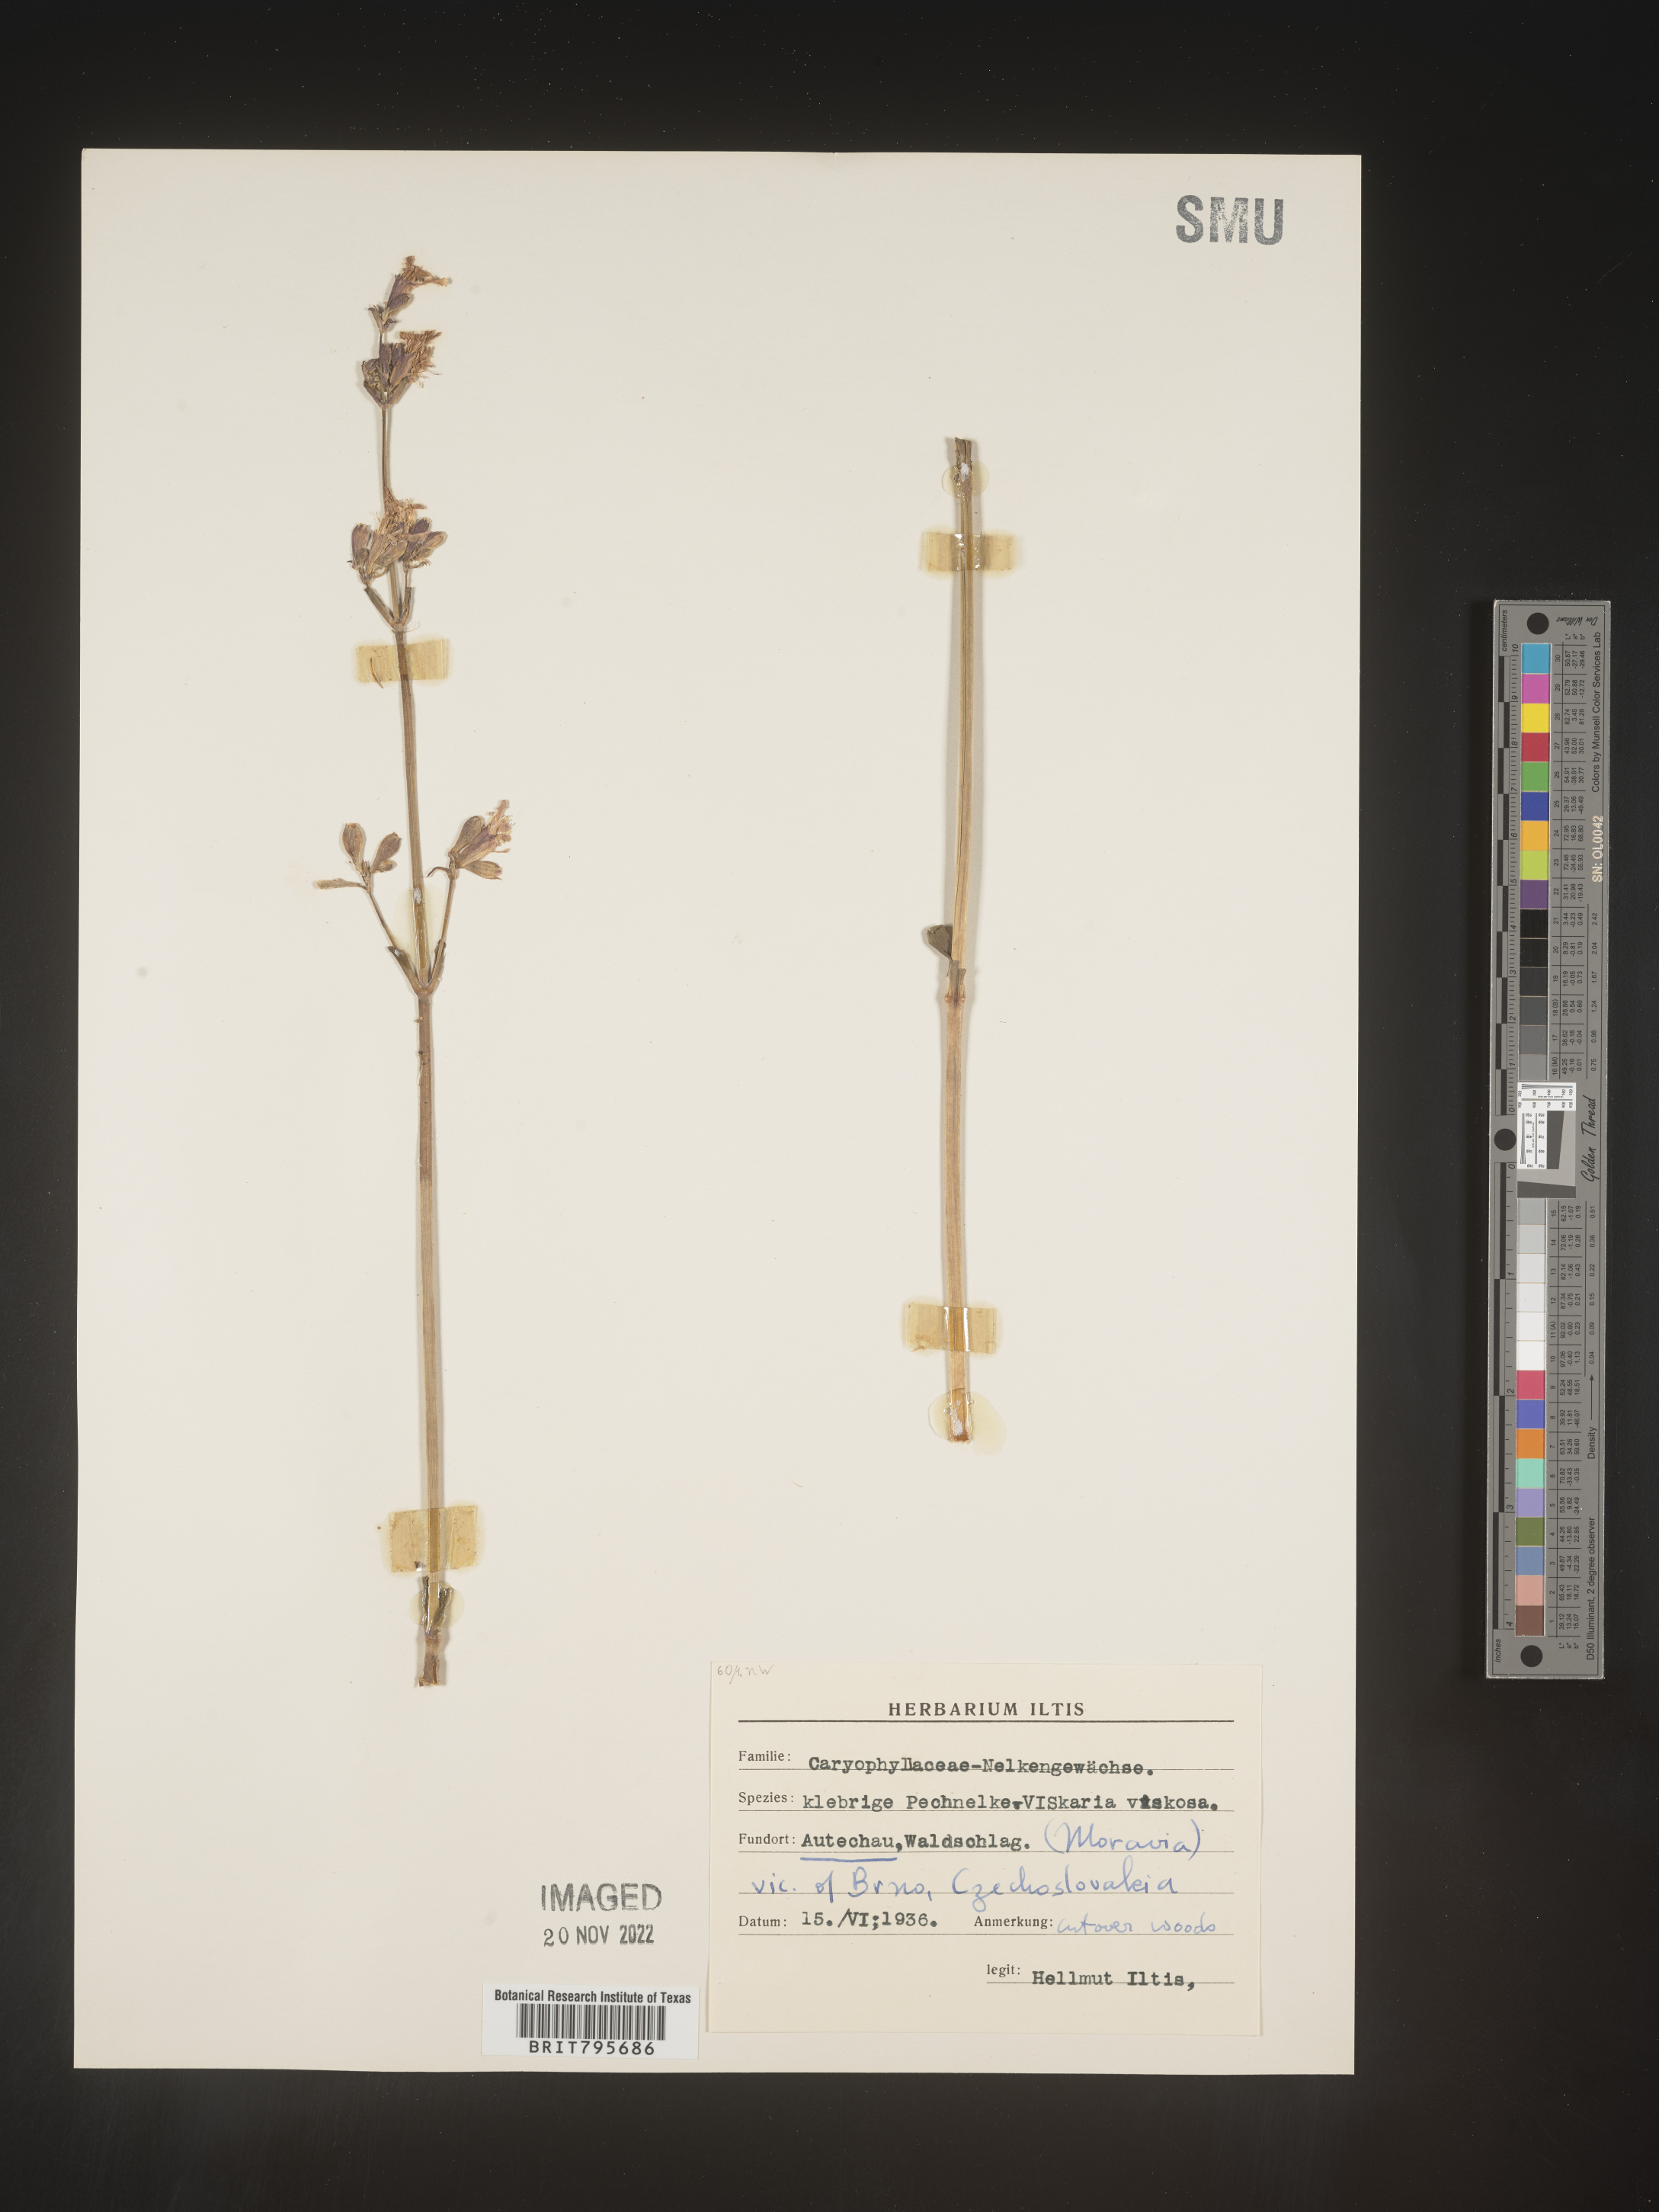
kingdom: Plantae
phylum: Tracheophyta
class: Magnoliopsida
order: Caryophyllales
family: Caryophyllaceae
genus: Viscaria
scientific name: Viscaria
